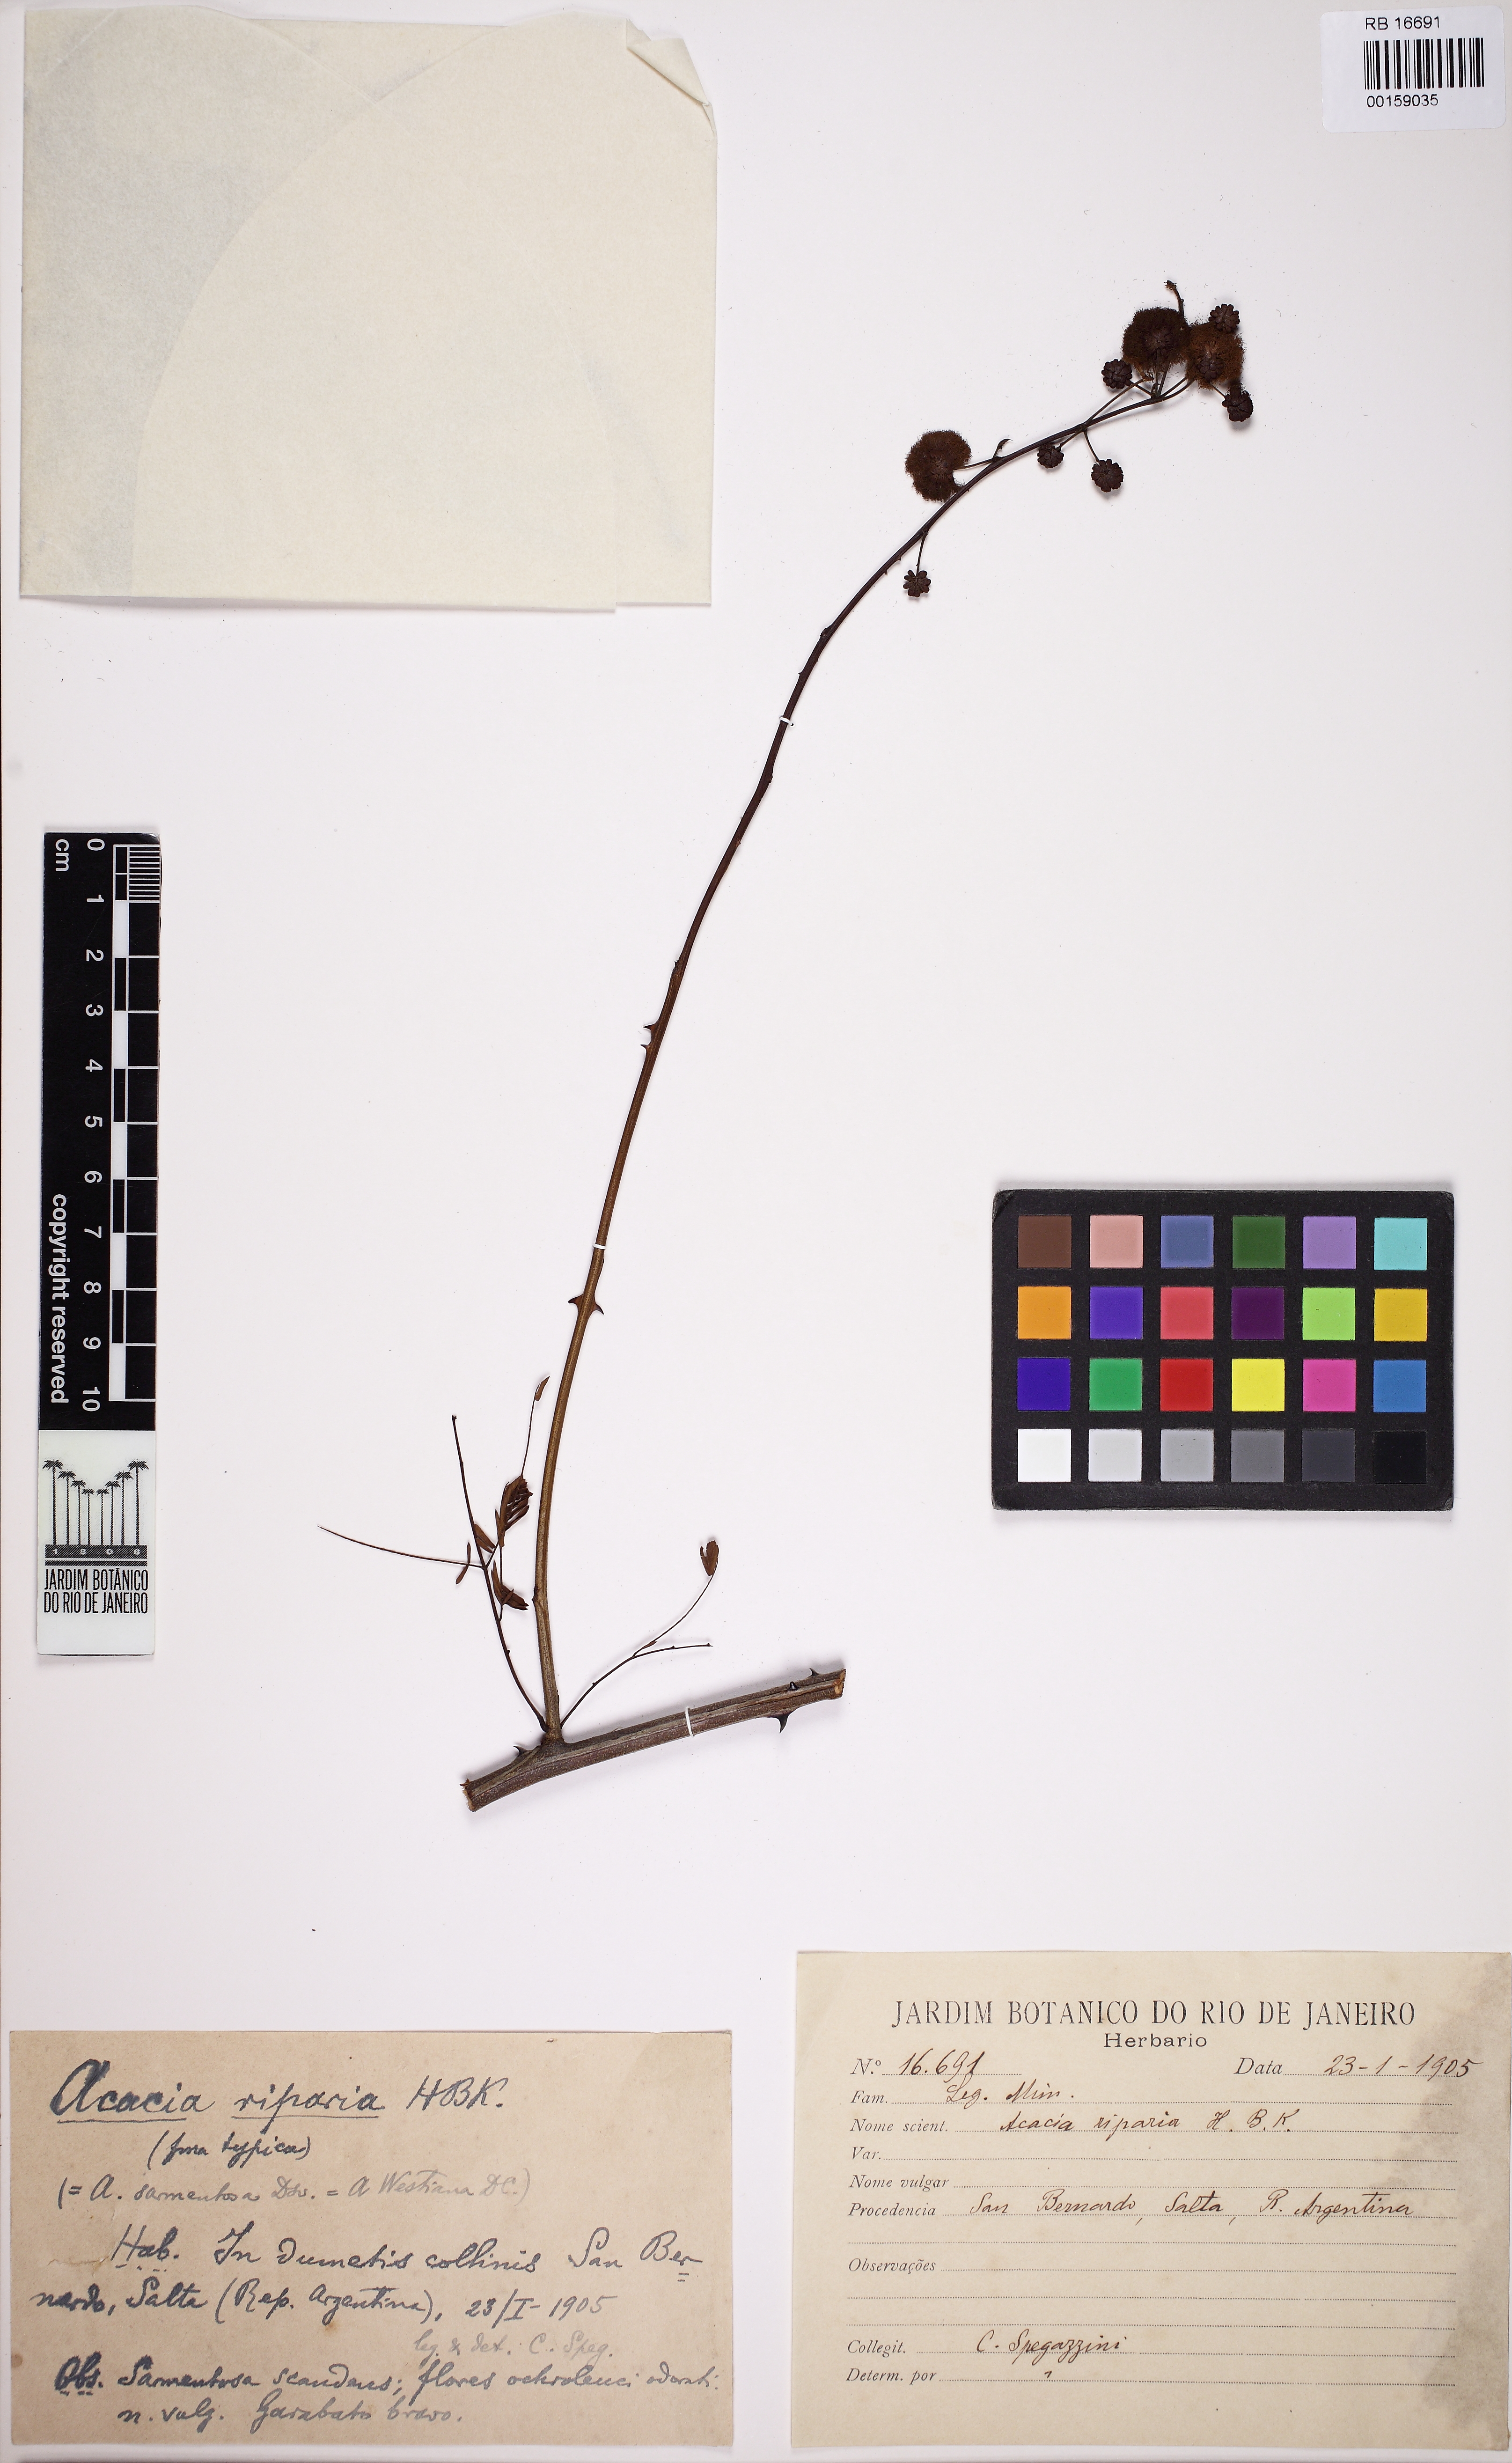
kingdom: Plantae
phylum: Tracheophyta
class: Magnoliopsida
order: Fabales
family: Fabaceae
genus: Senegalia
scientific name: Senegalia riparia
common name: Catch-and-keep
